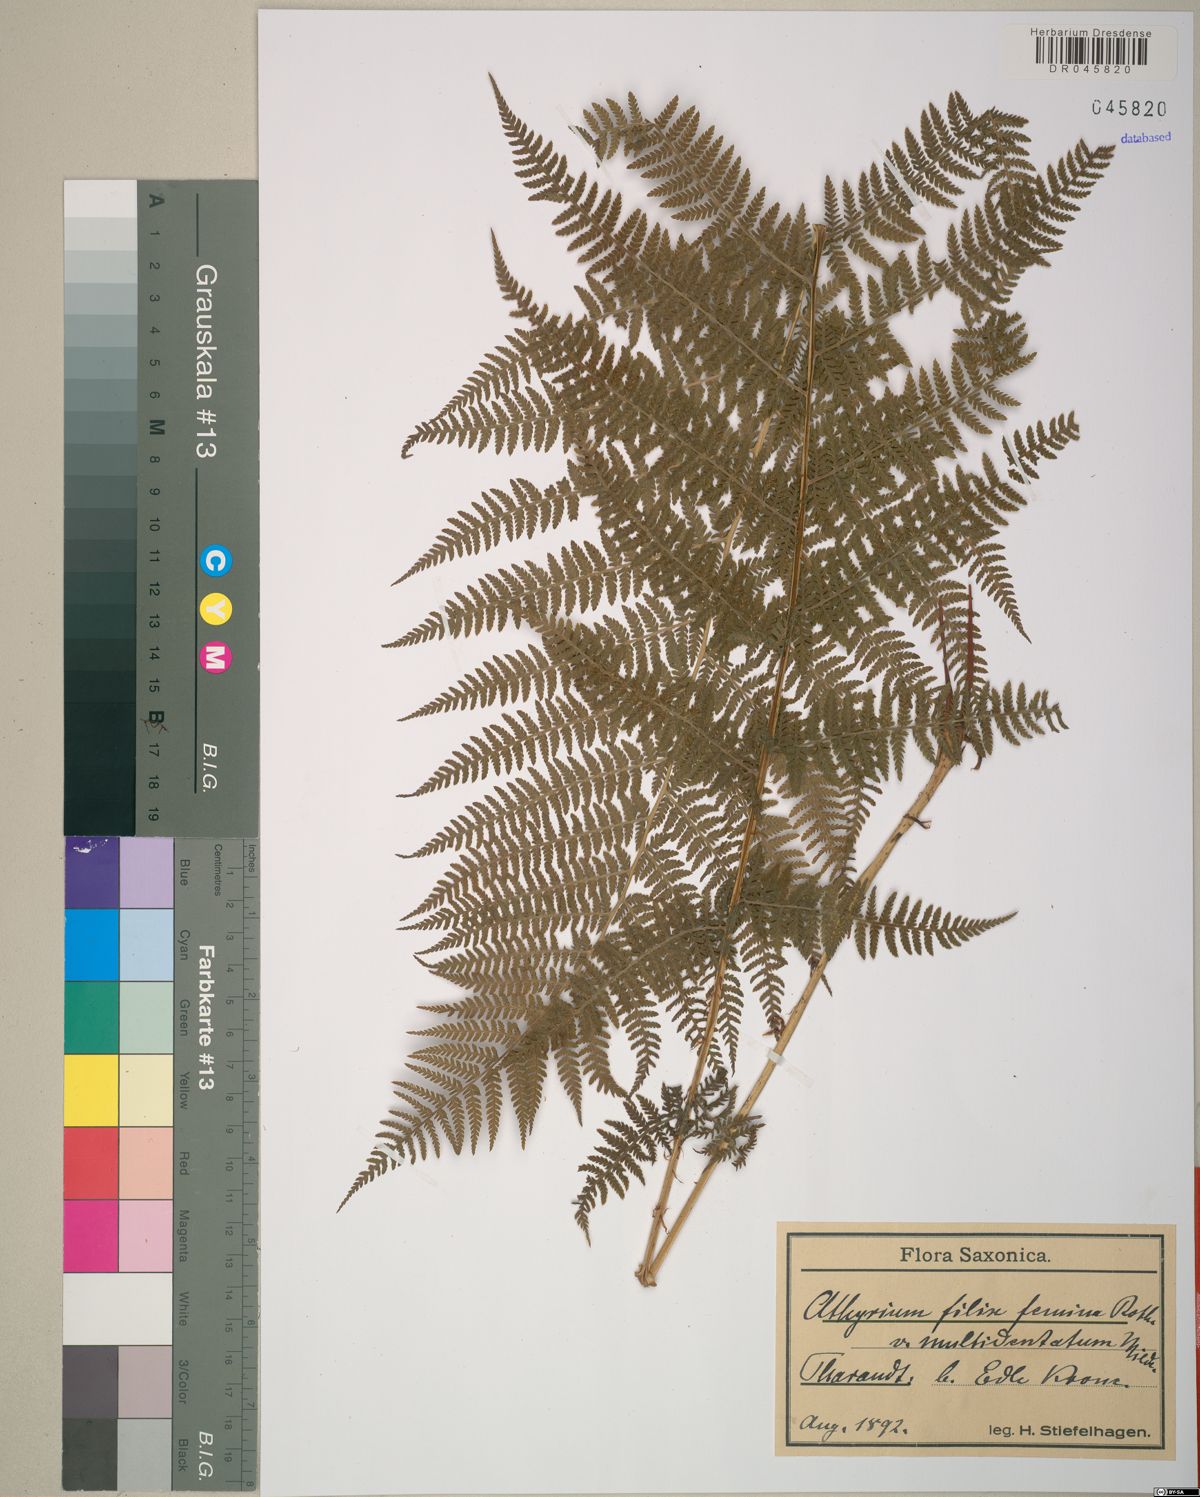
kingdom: Plantae
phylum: Tracheophyta
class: Polypodiopsida
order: Polypodiales
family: Athyriaceae
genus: Athyrium
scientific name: Athyrium filix-femina
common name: Lady fern
